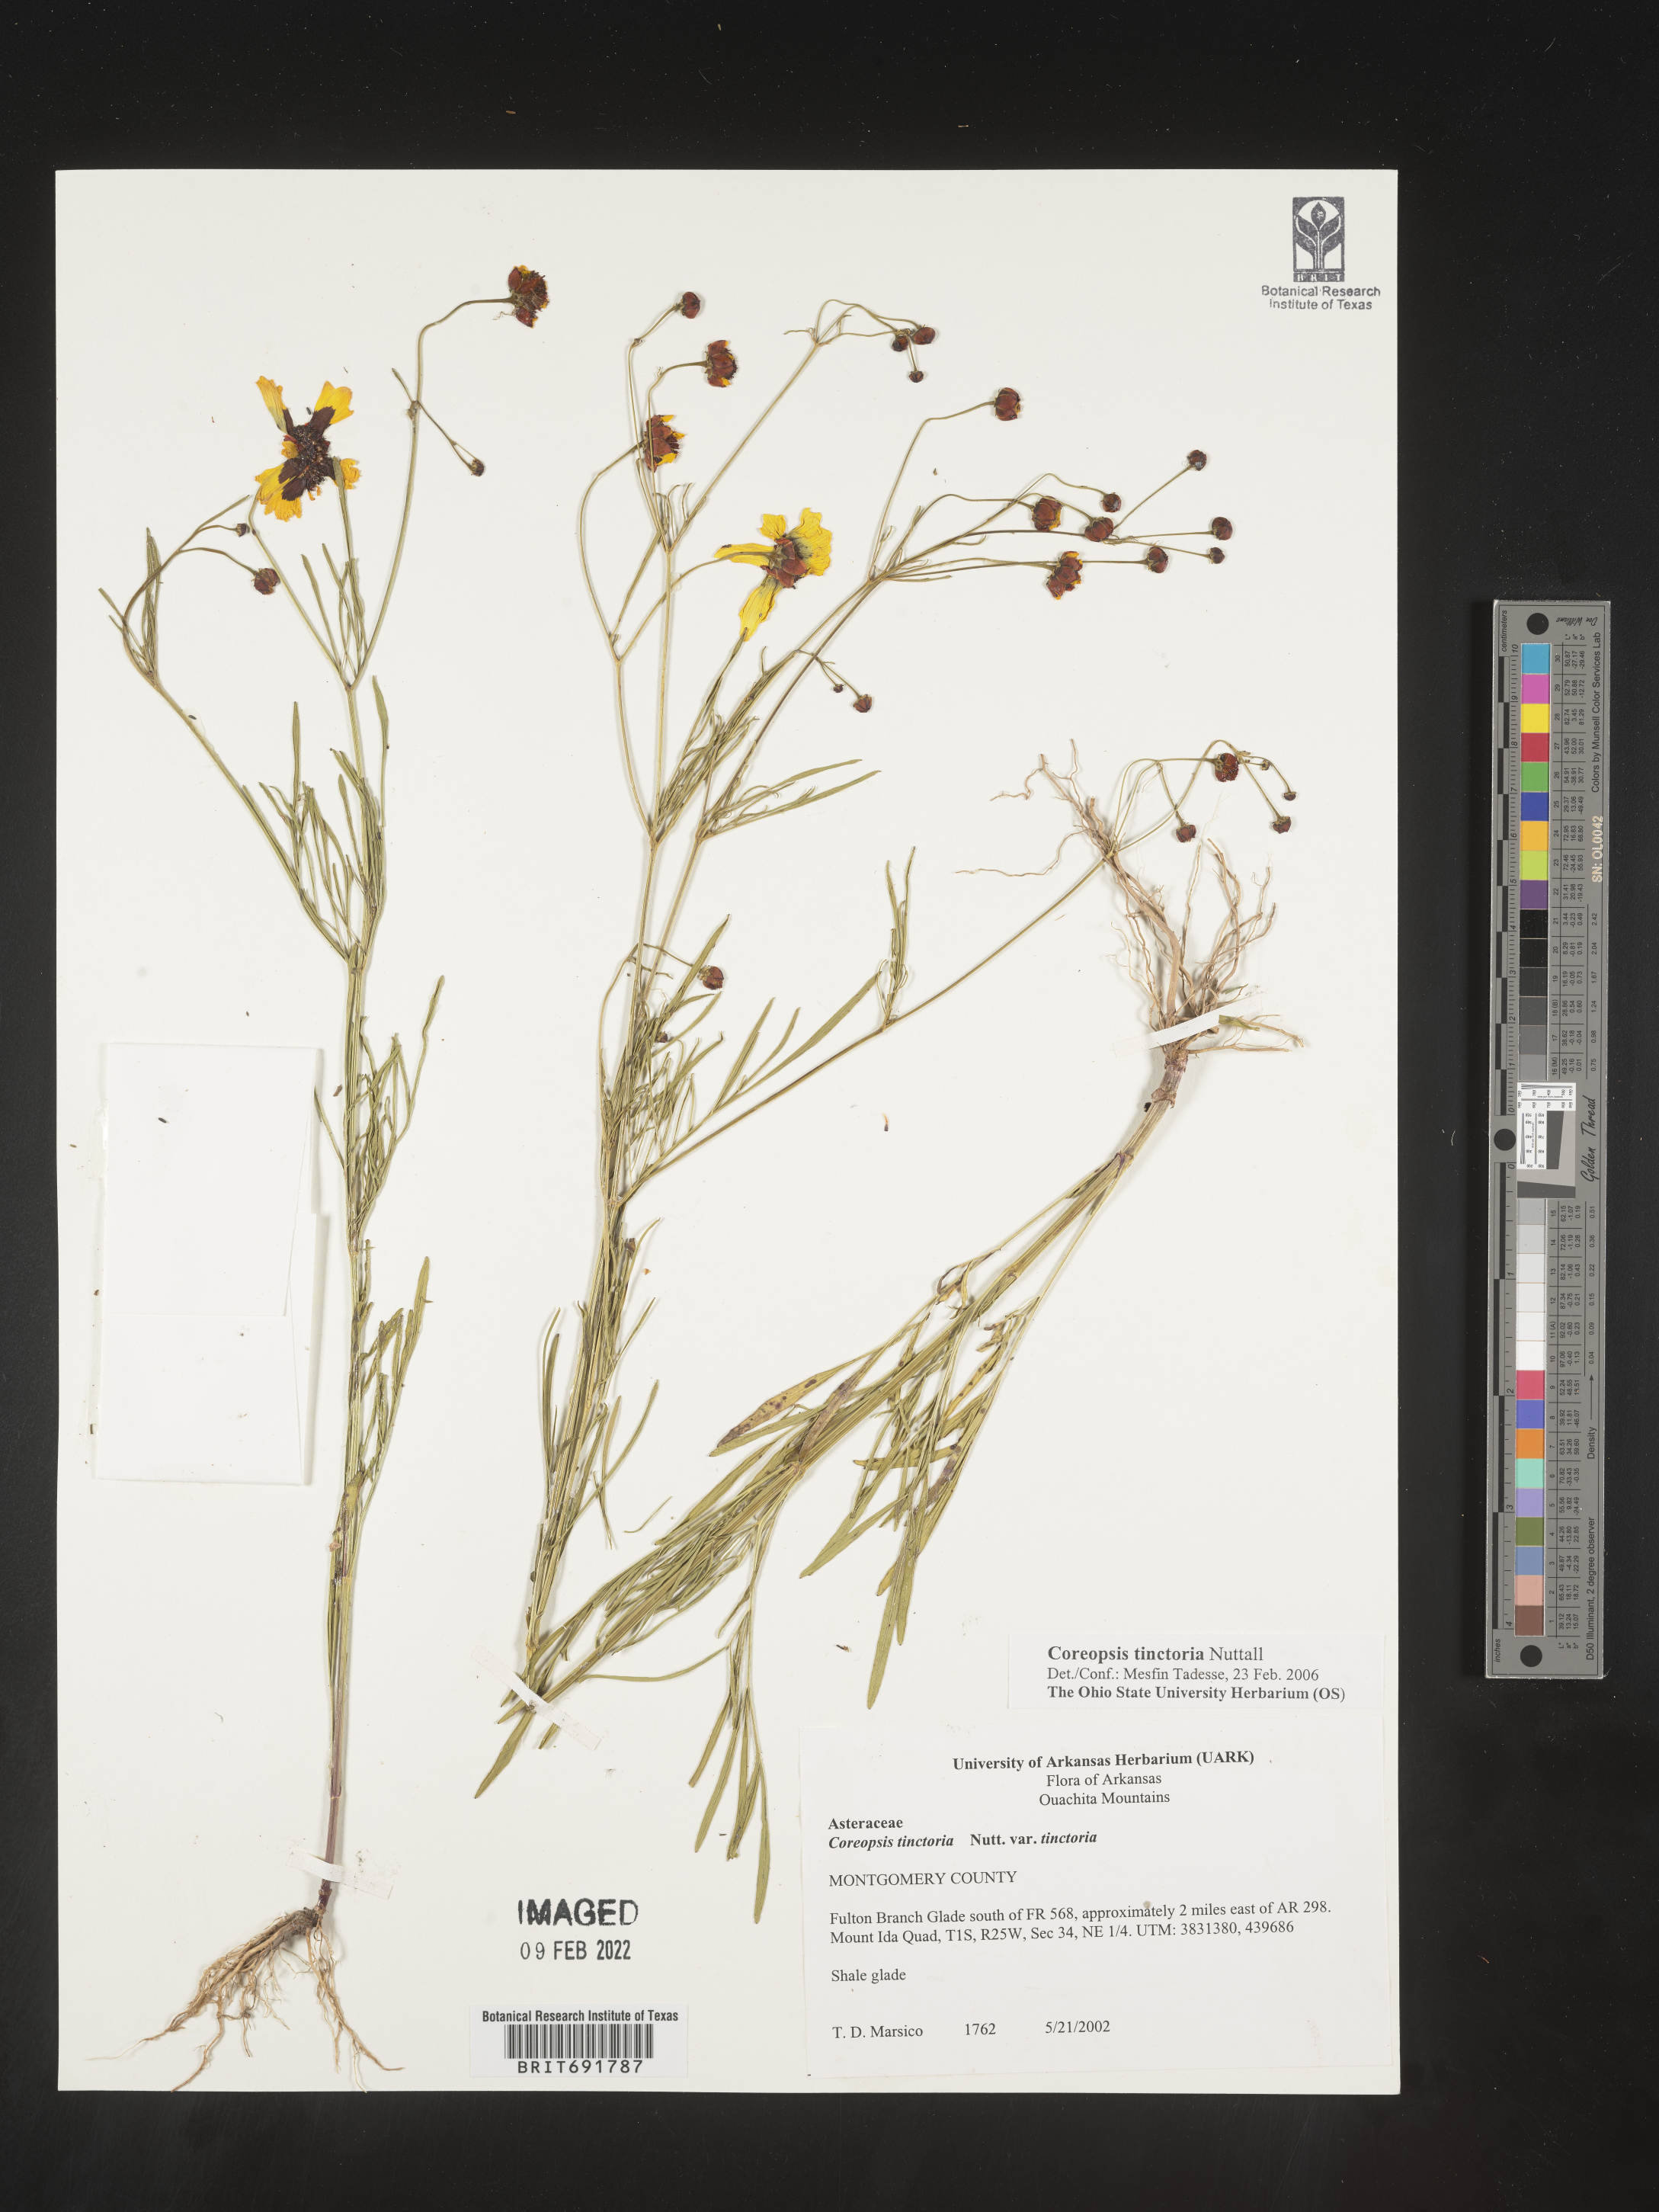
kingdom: Plantae
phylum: Tracheophyta
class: Magnoliopsida
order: Asterales
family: Asteraceae
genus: Coreopsis
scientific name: Coreopsis tinctoria
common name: Garden tickseed
